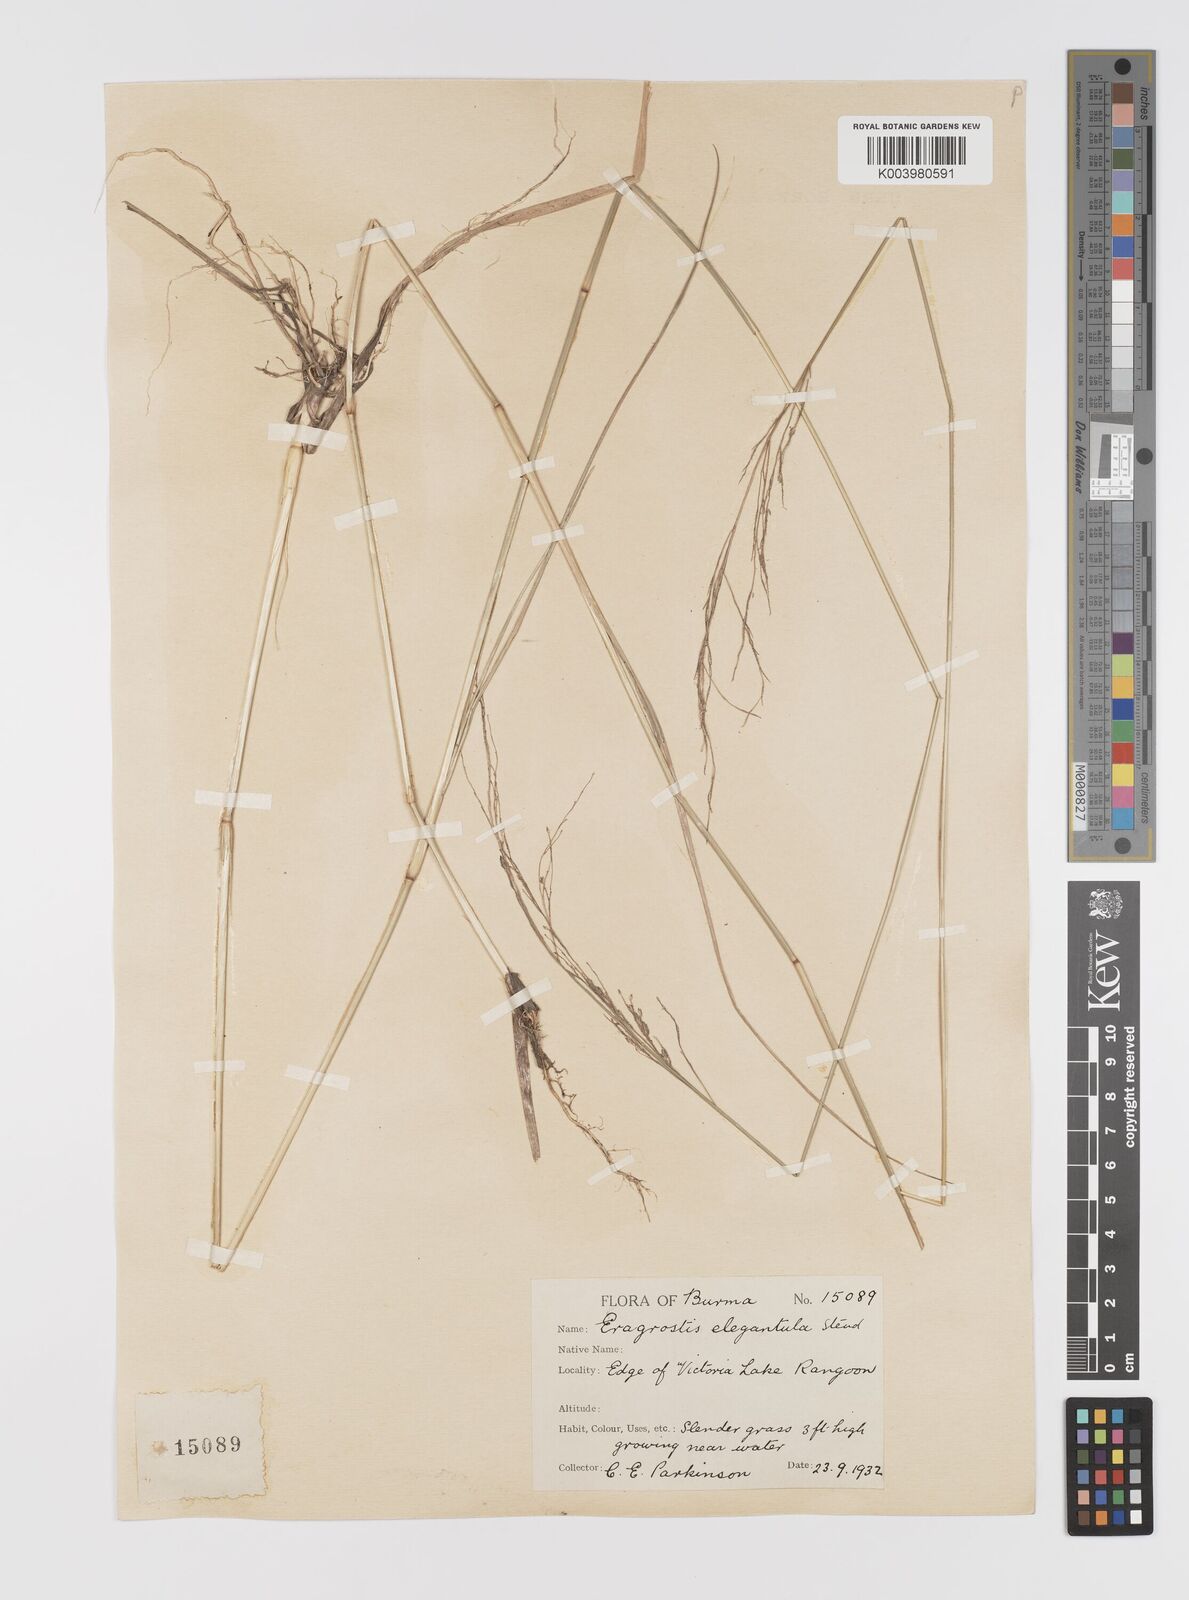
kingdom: Plantae
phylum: Tracheophyta
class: Liliopsida
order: Poales
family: Poaceae
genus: Eragrostis
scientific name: Eragrostis atrovirens
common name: Thalia lovegrass
